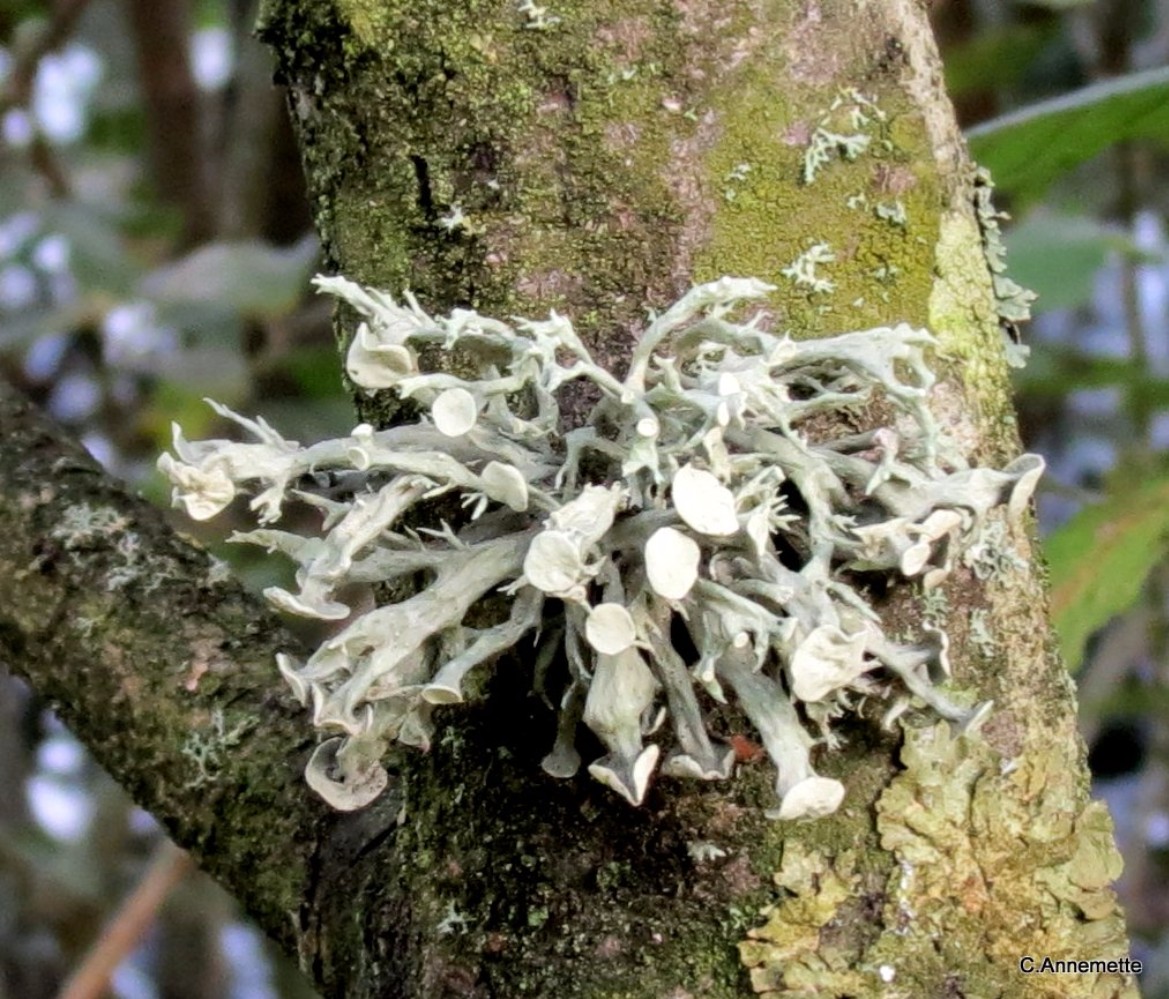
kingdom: Fungi
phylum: Ascomycota
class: Lecanoromycetes
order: Lecanorales
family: Ramalinaceae
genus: Ramalina
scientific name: Ramalina fastigiata
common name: tue-grenlav
